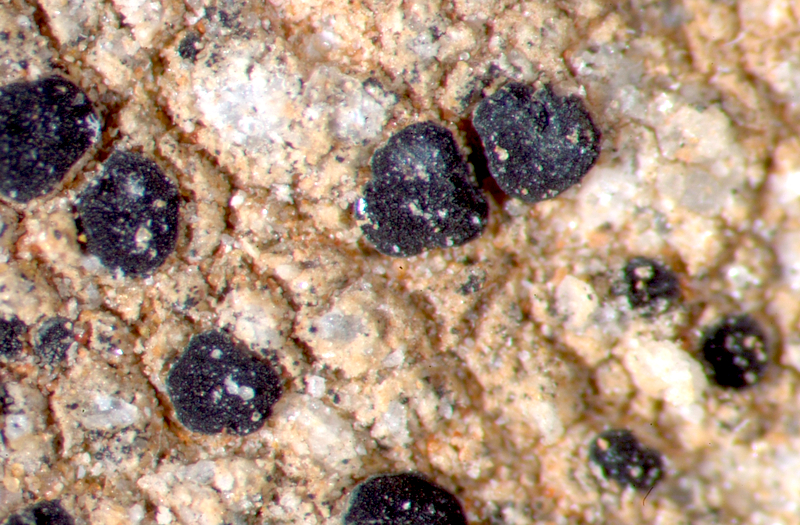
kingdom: Fungi
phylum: Ascomycota
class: Lecanoromycetes
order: Caliciales
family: Caliciaceae
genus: Buellia
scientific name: Buellia
